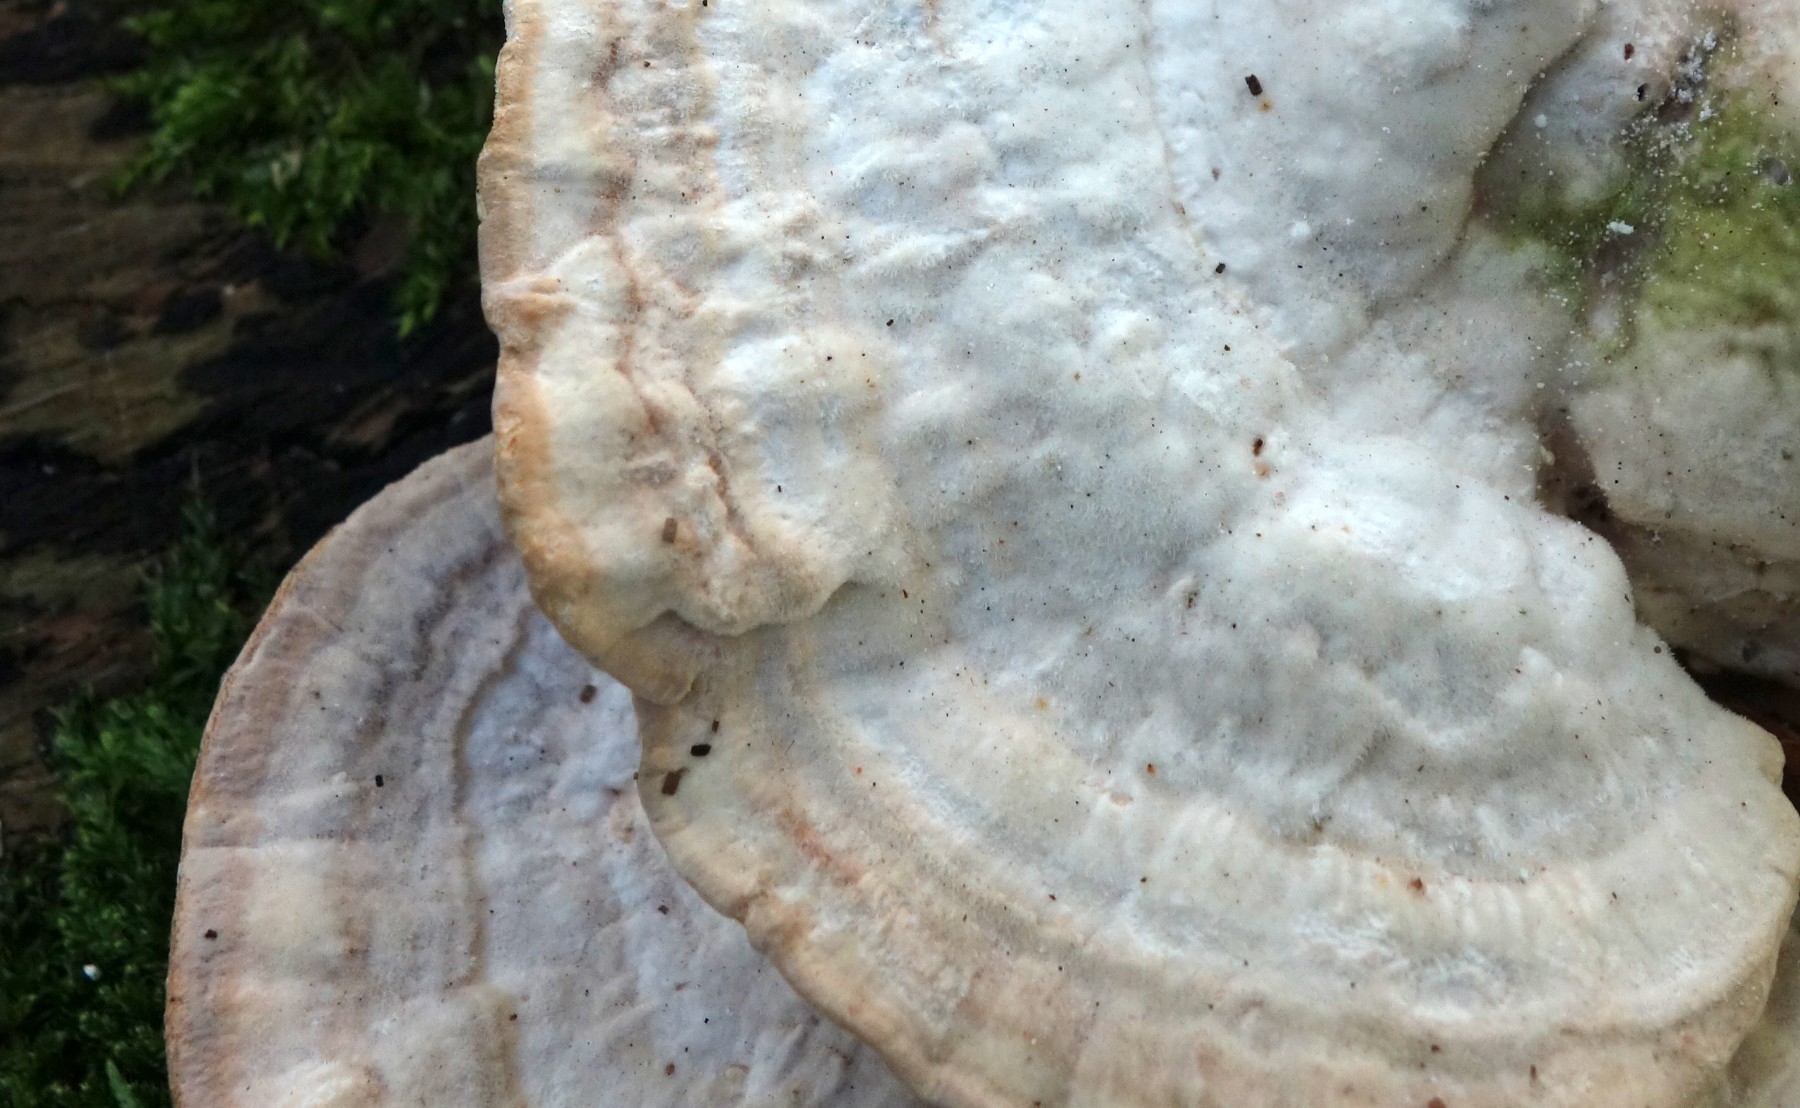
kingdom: Fungi
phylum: Basidiomycota
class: Agaricomycetes
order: Polyporales
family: Polyporaceae
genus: Trametes
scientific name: Trametes gibbosa
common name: puklet læderporesvamp
